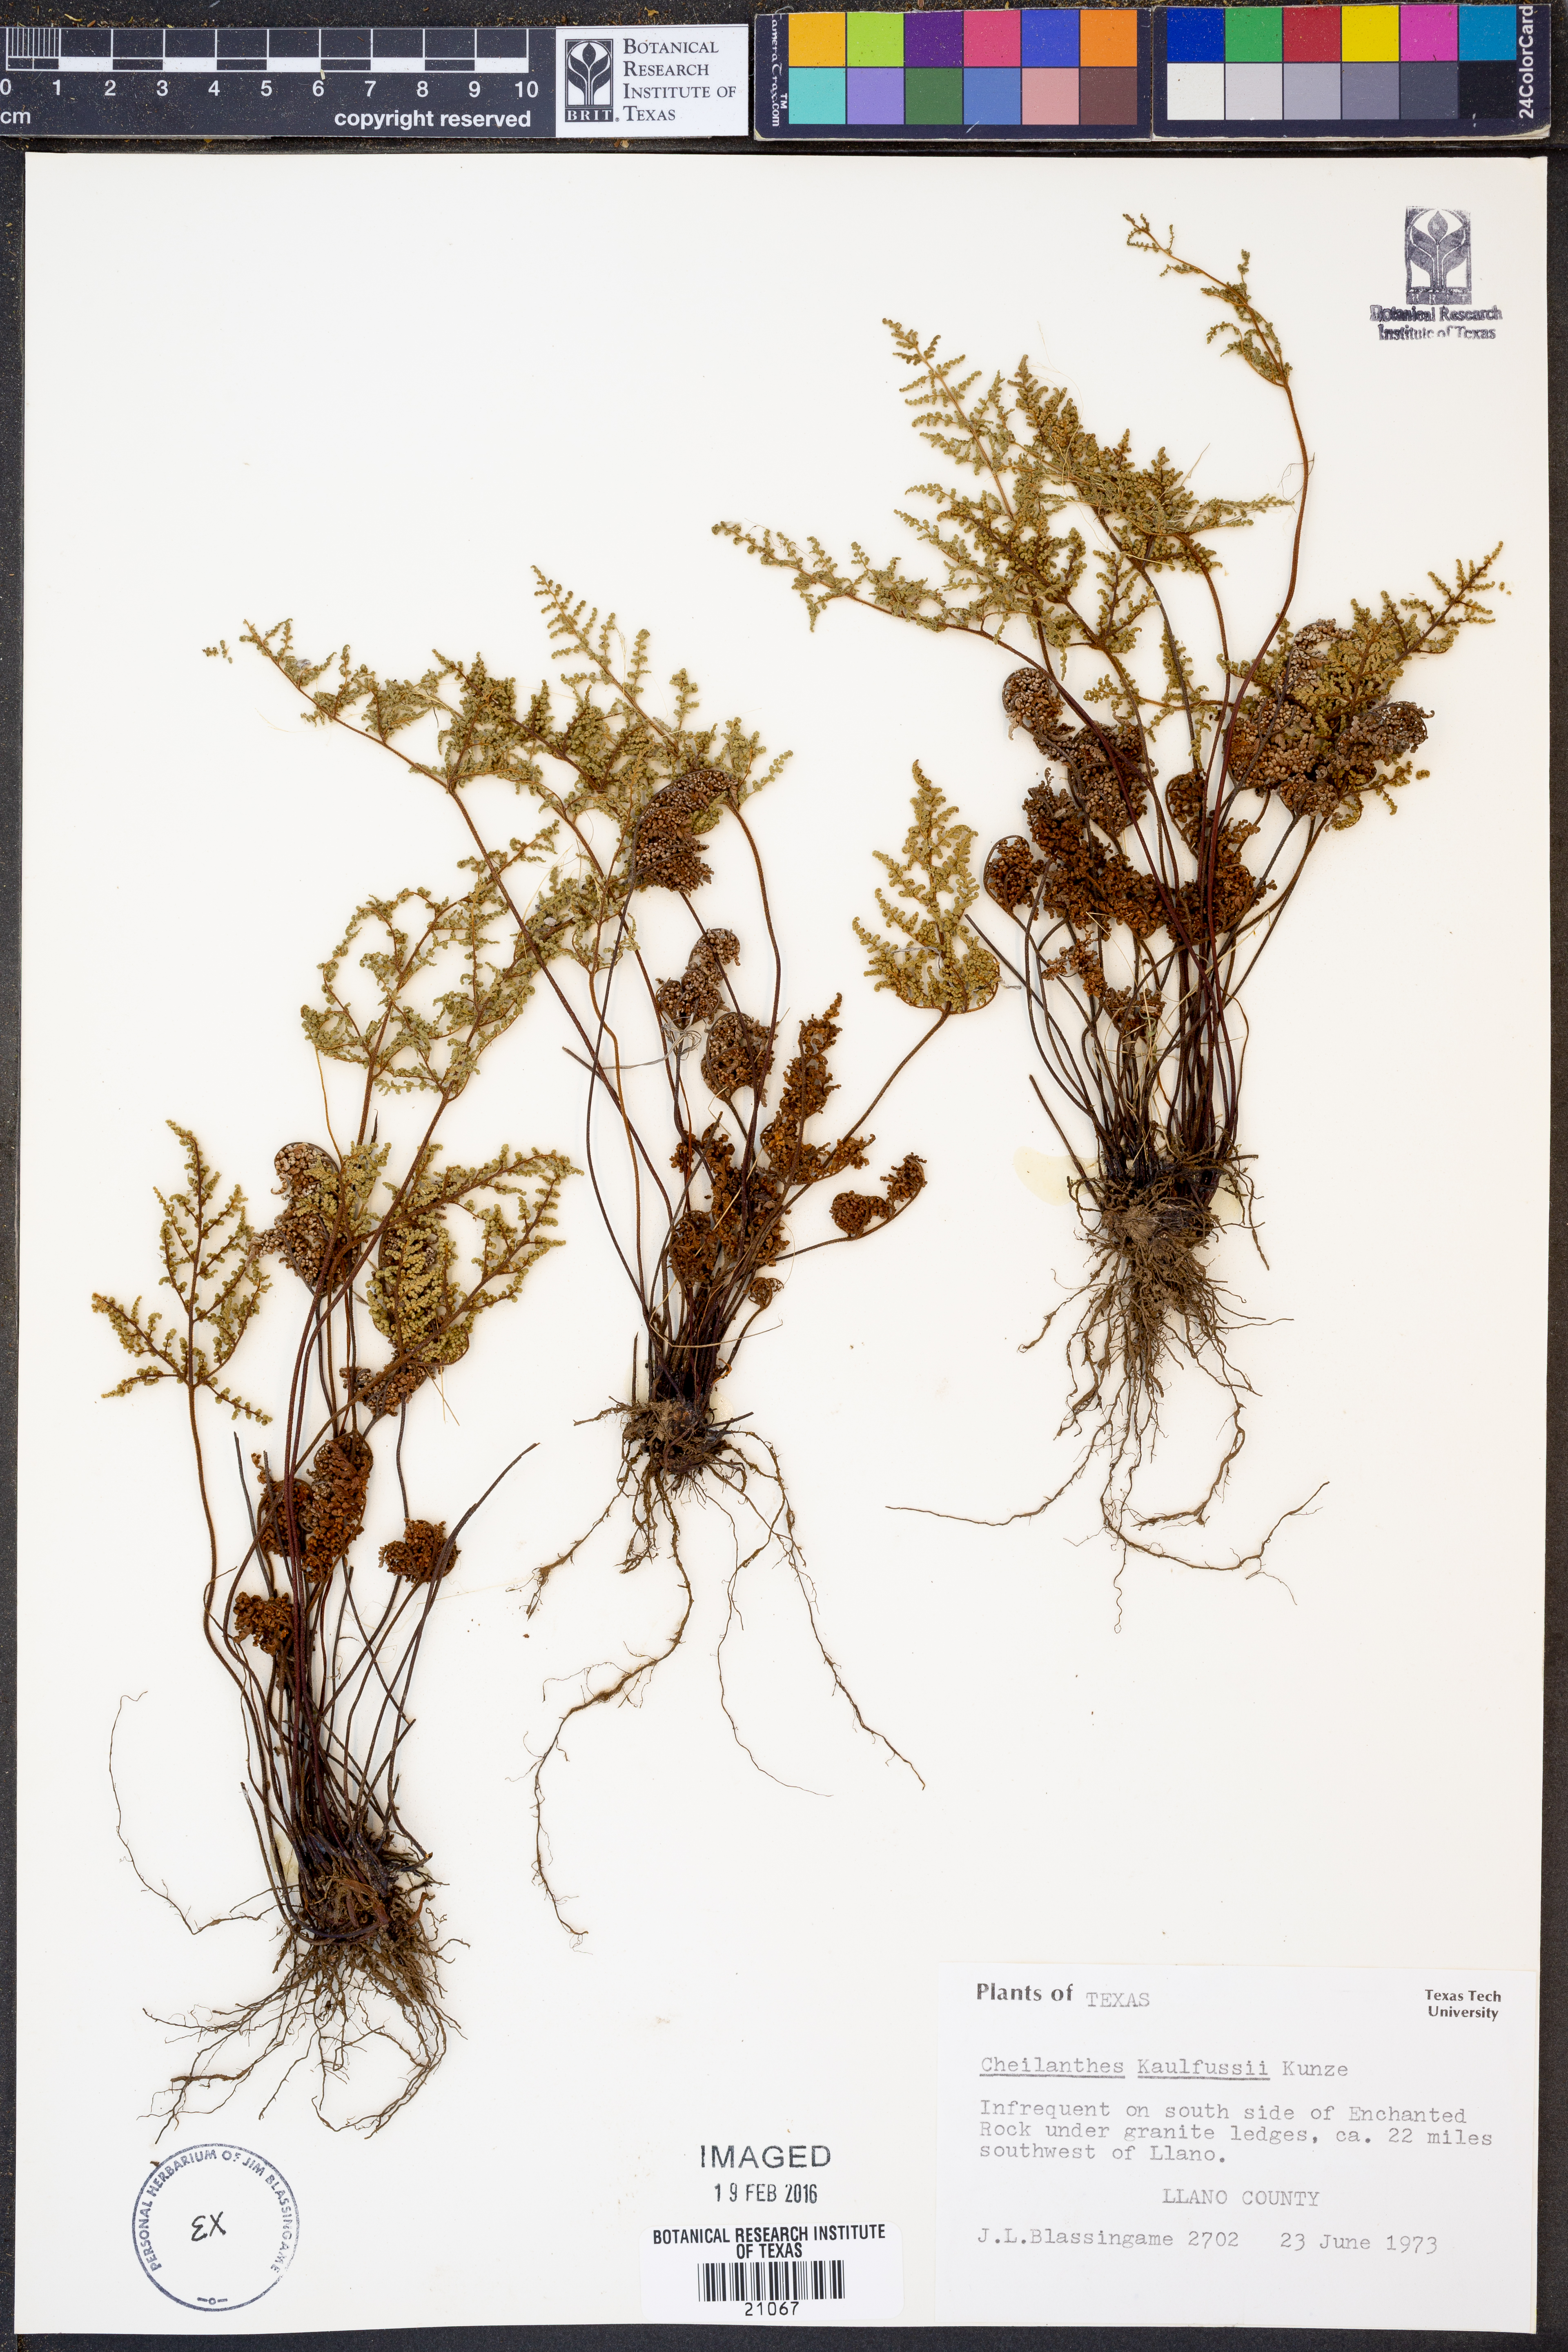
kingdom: Plantae
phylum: Tracheophyta
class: Polypodiopsida
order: Polypodiales
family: Pteridaceae
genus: Gaga
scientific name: Gaga kaulfussii
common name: Glandular lip fern
